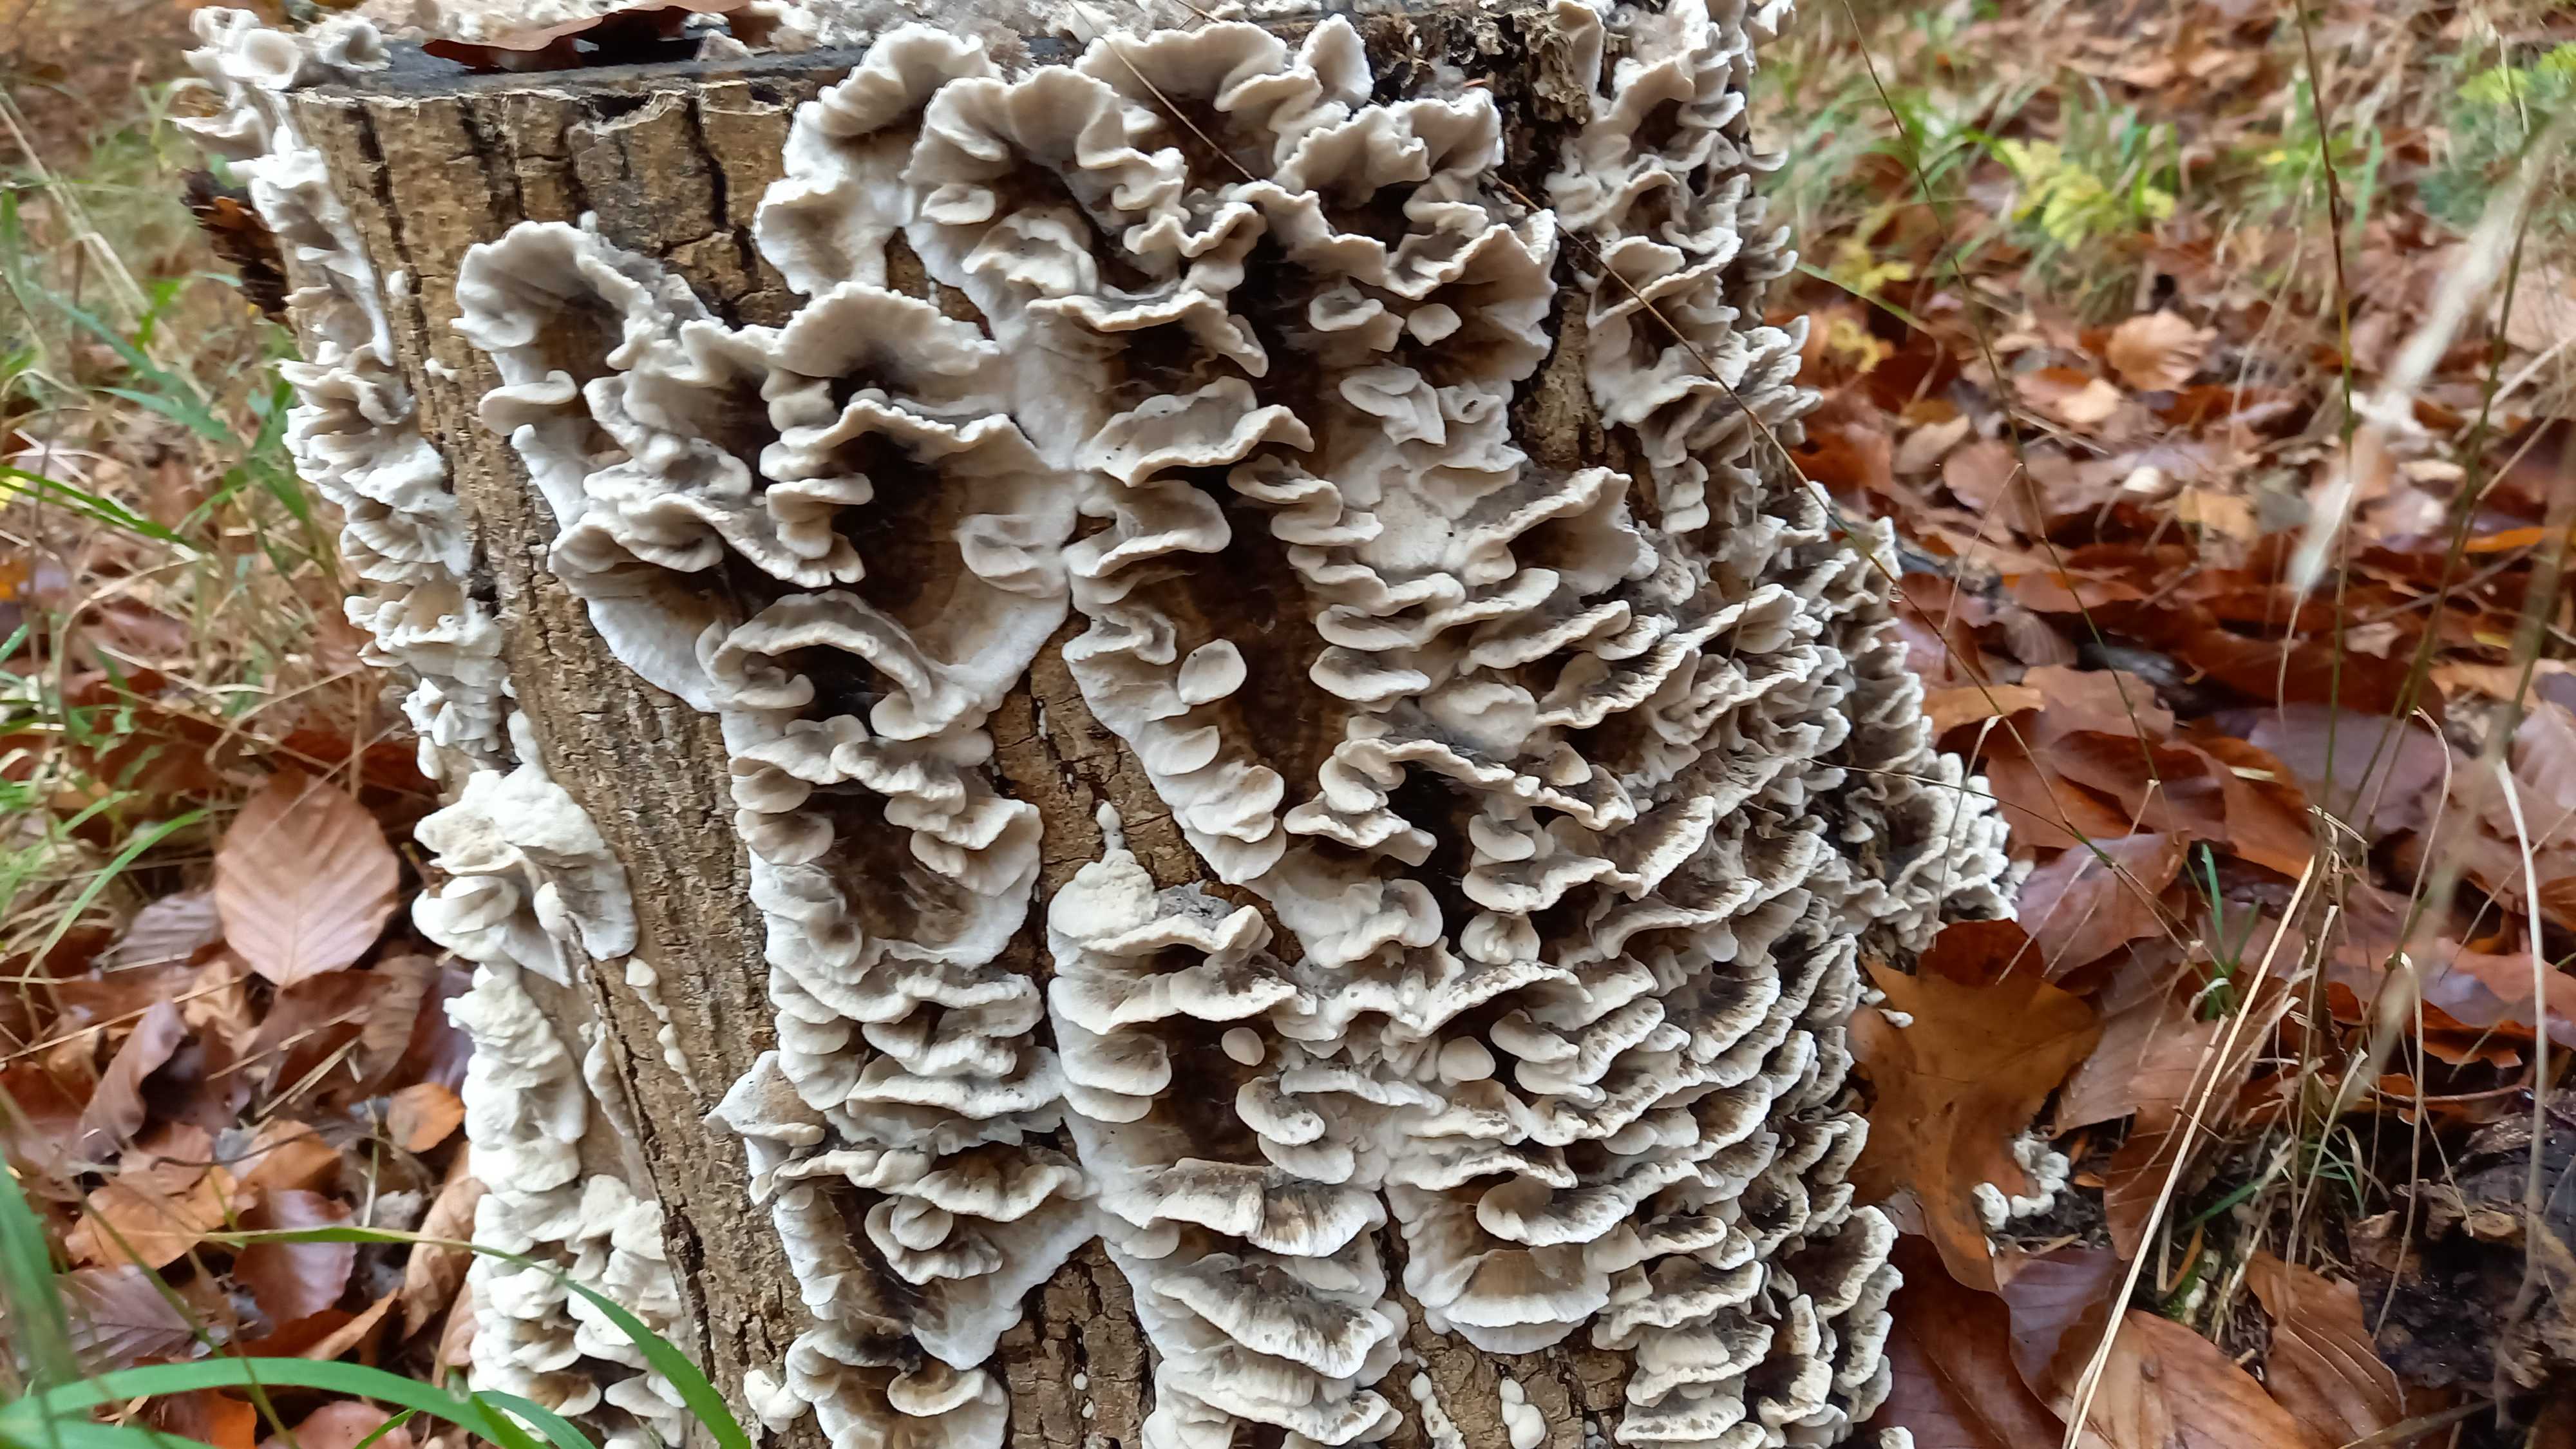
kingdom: Fungi
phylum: Basidiomycota
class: Agaricomycetes
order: Polyporales
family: Phanerochaetaceae
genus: Bjerkandera
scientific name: Bjerkandera adusta
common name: sveden sodporesvamp
